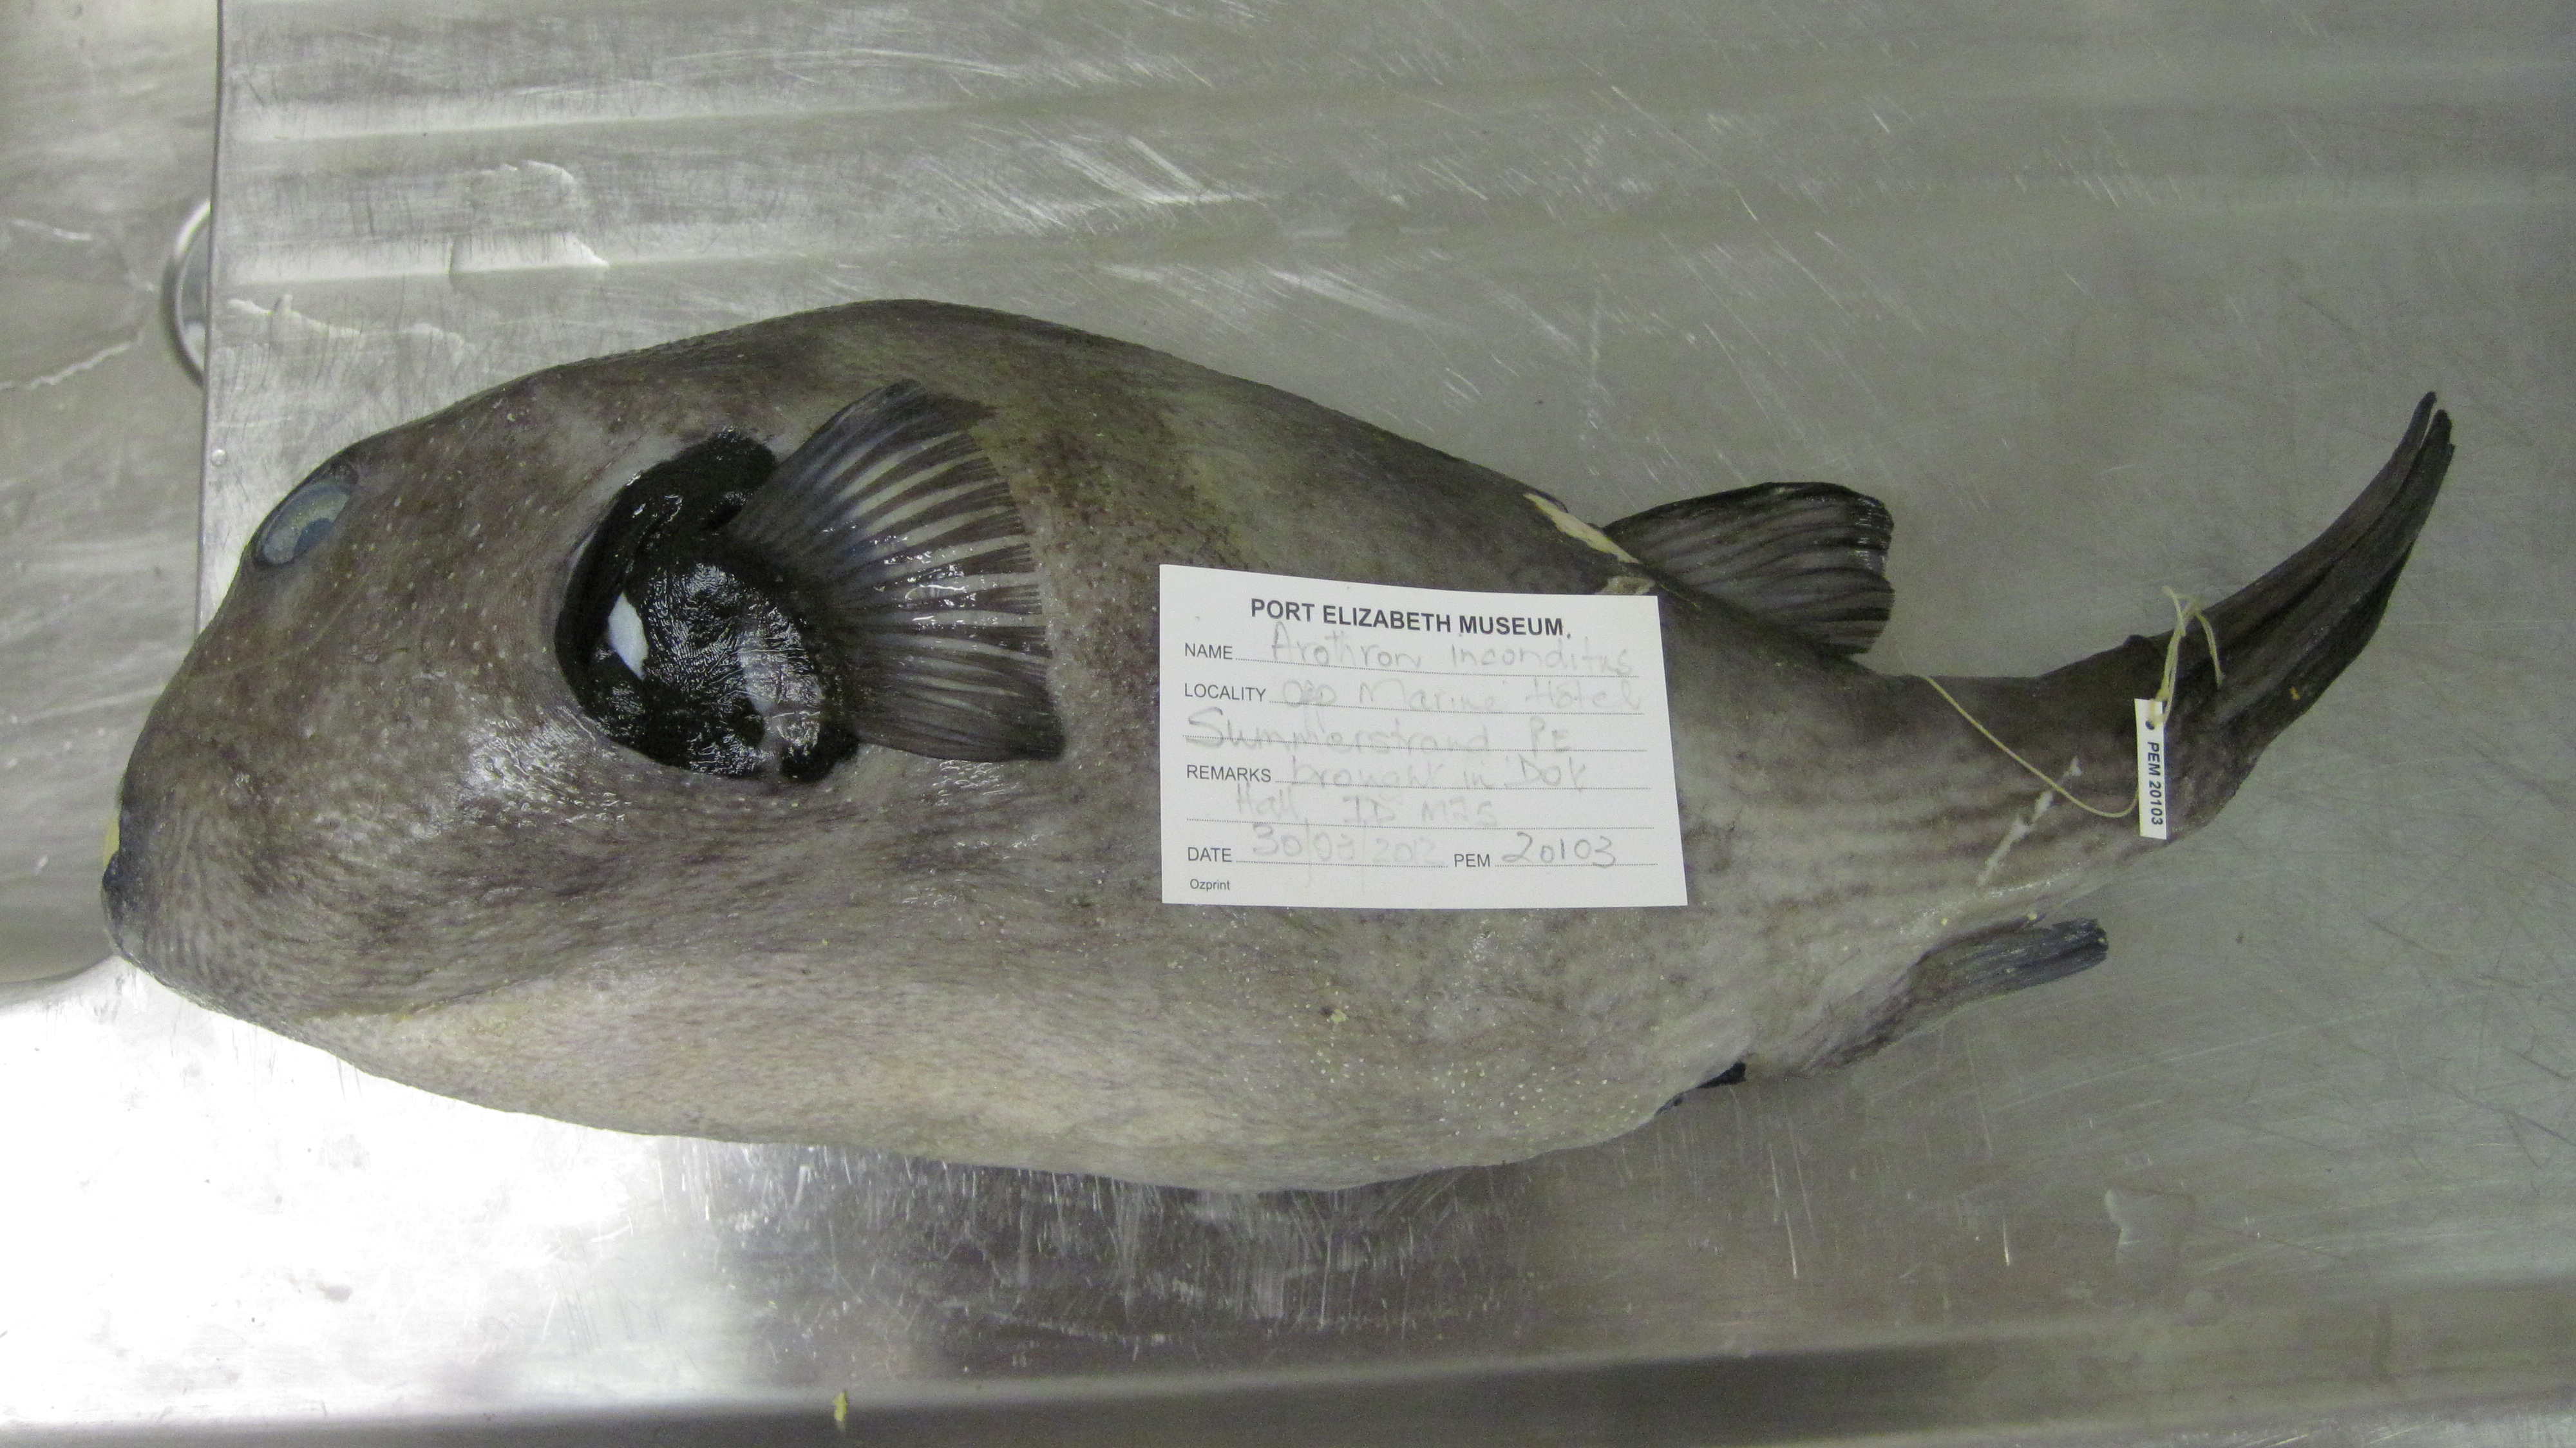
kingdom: Animalia
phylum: Chordata
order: Tetraodontiformes
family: Tetraodontidae
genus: Arothron
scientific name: Arothron inconditus
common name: Bellystriped blaasop
